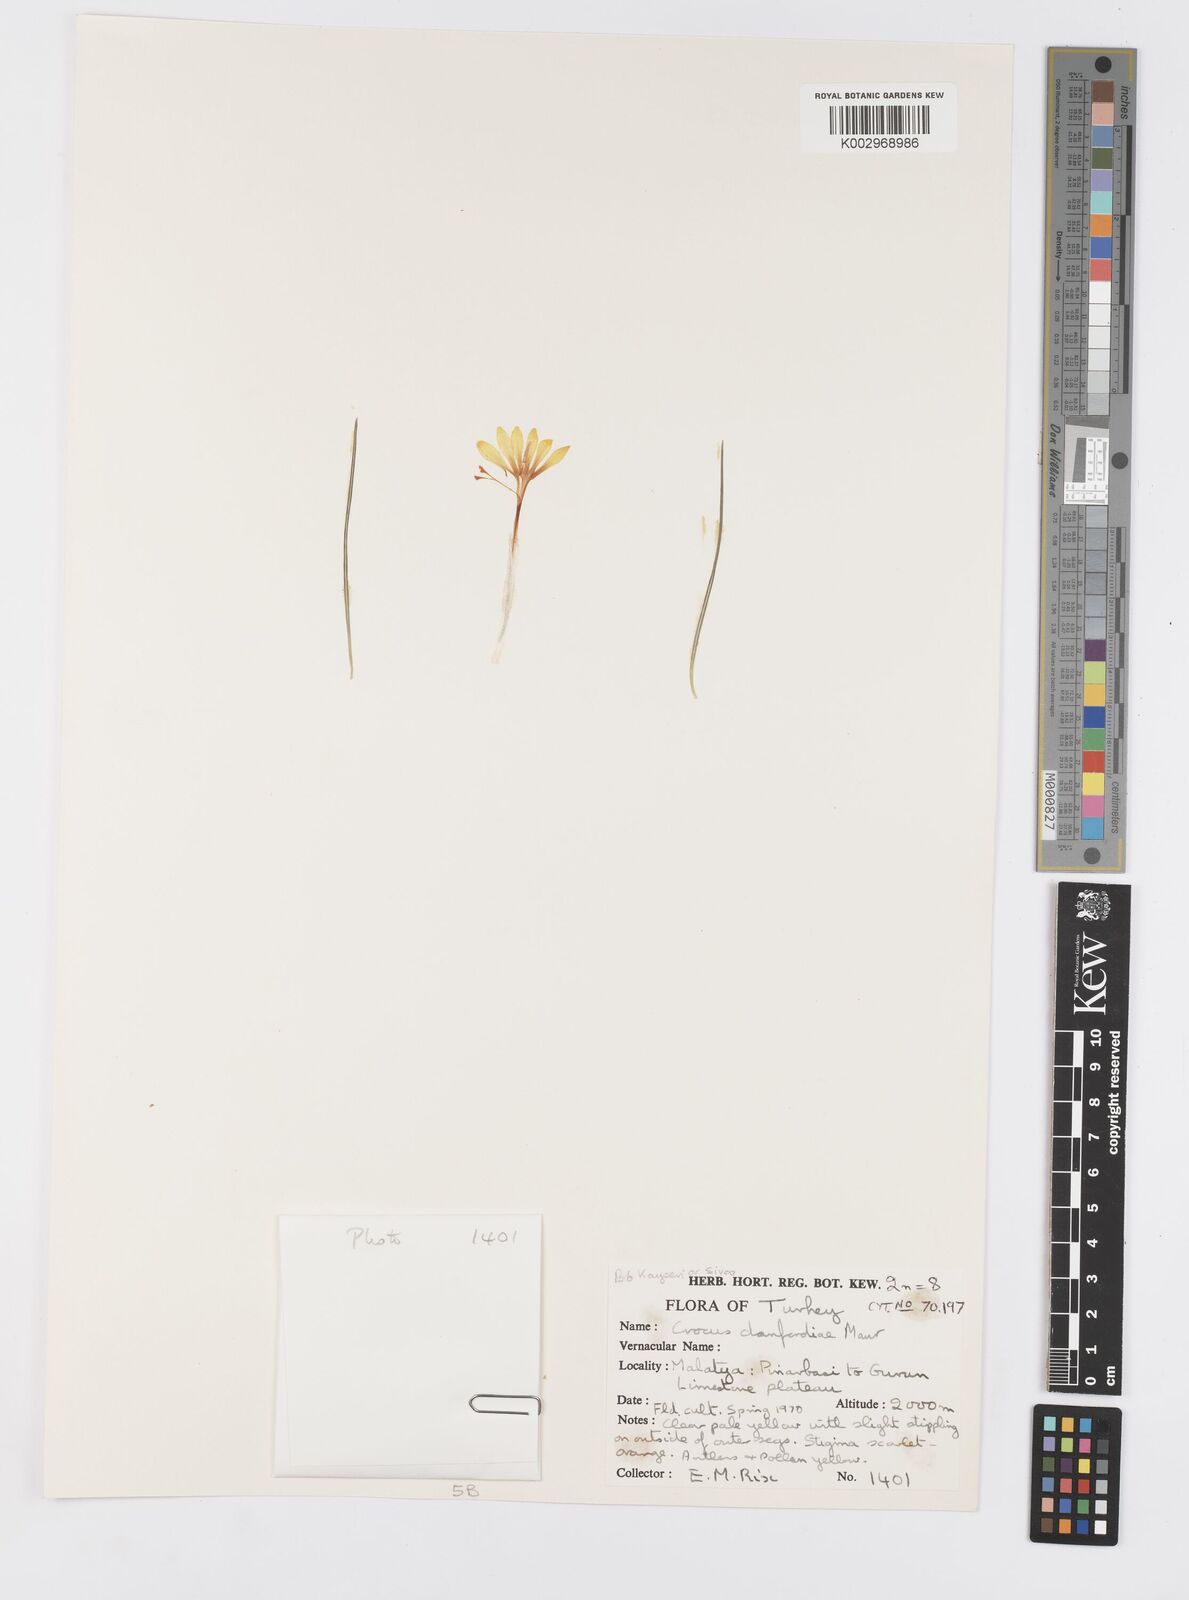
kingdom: Plantae
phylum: Tracheophyta
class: Liliopsida
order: Asparagales
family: Iridaceae
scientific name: Iridaceae
